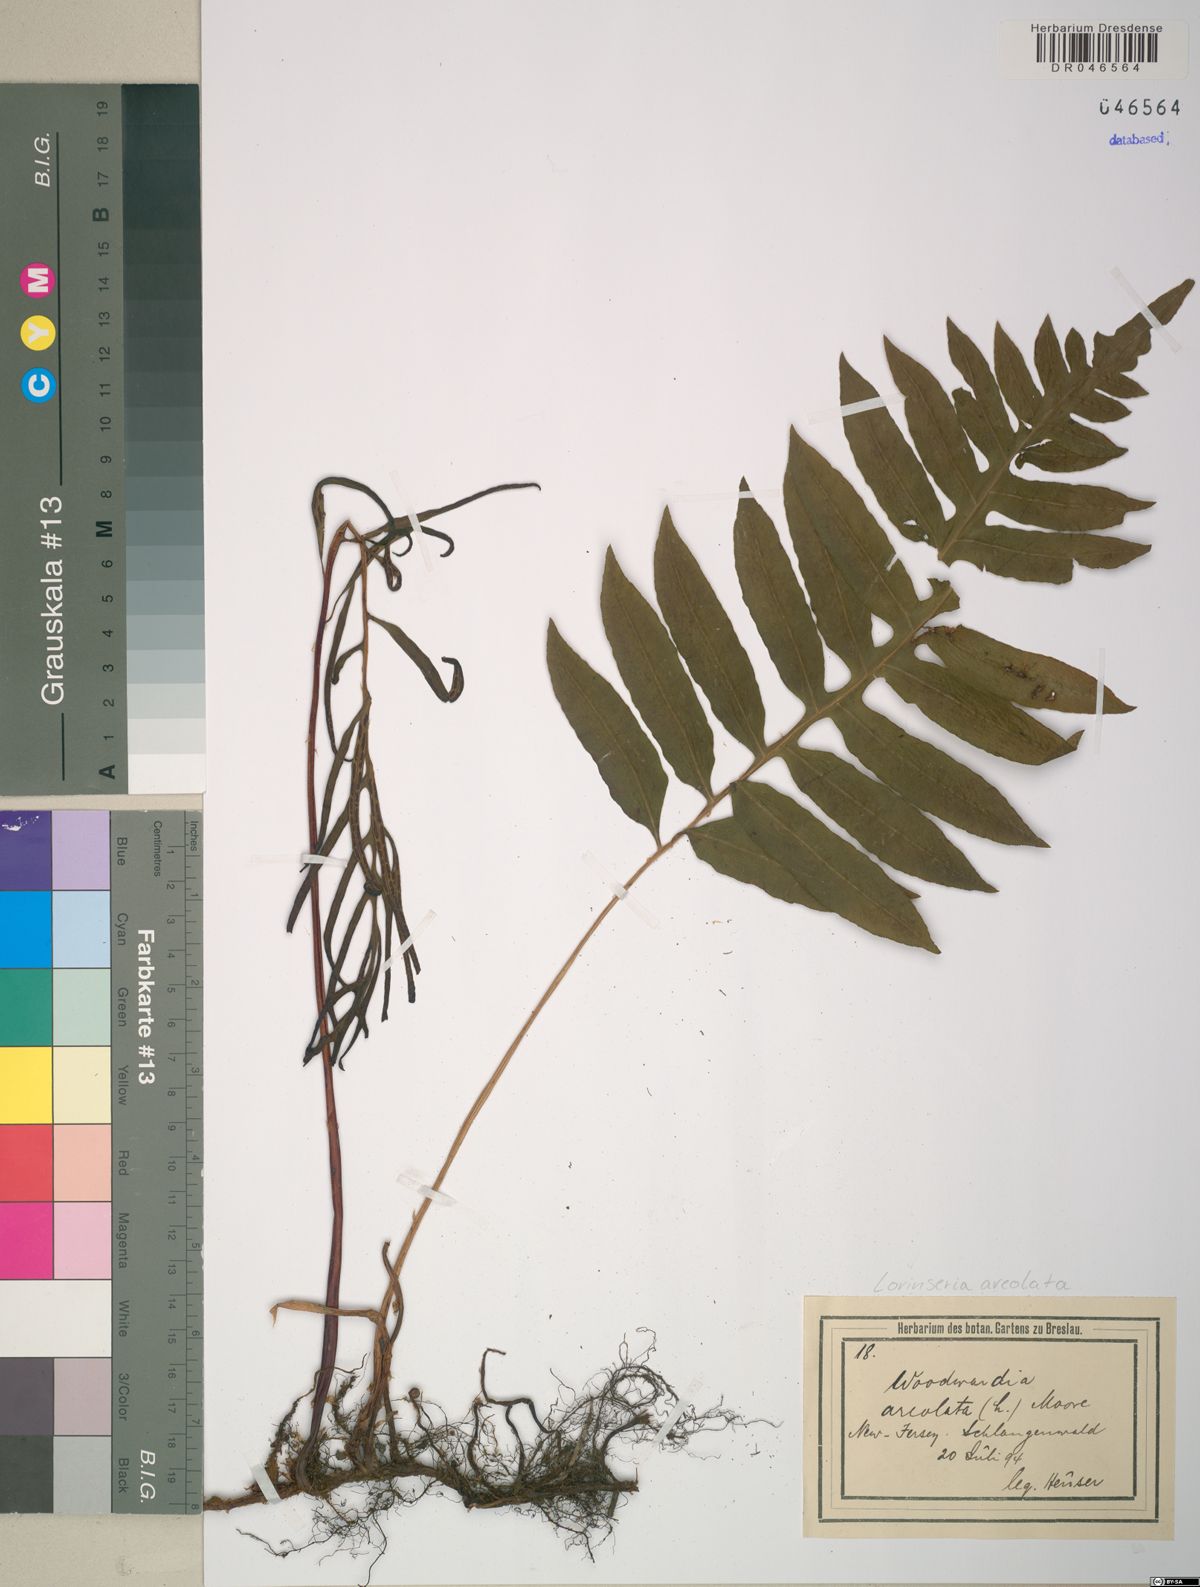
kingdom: Plantae
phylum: Tracheophyta
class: Polypodiopsida
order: Polypodiales
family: Blechnaceae
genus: Lorinseria
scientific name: Lorinseria areolata
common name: Dwarf chain fern
